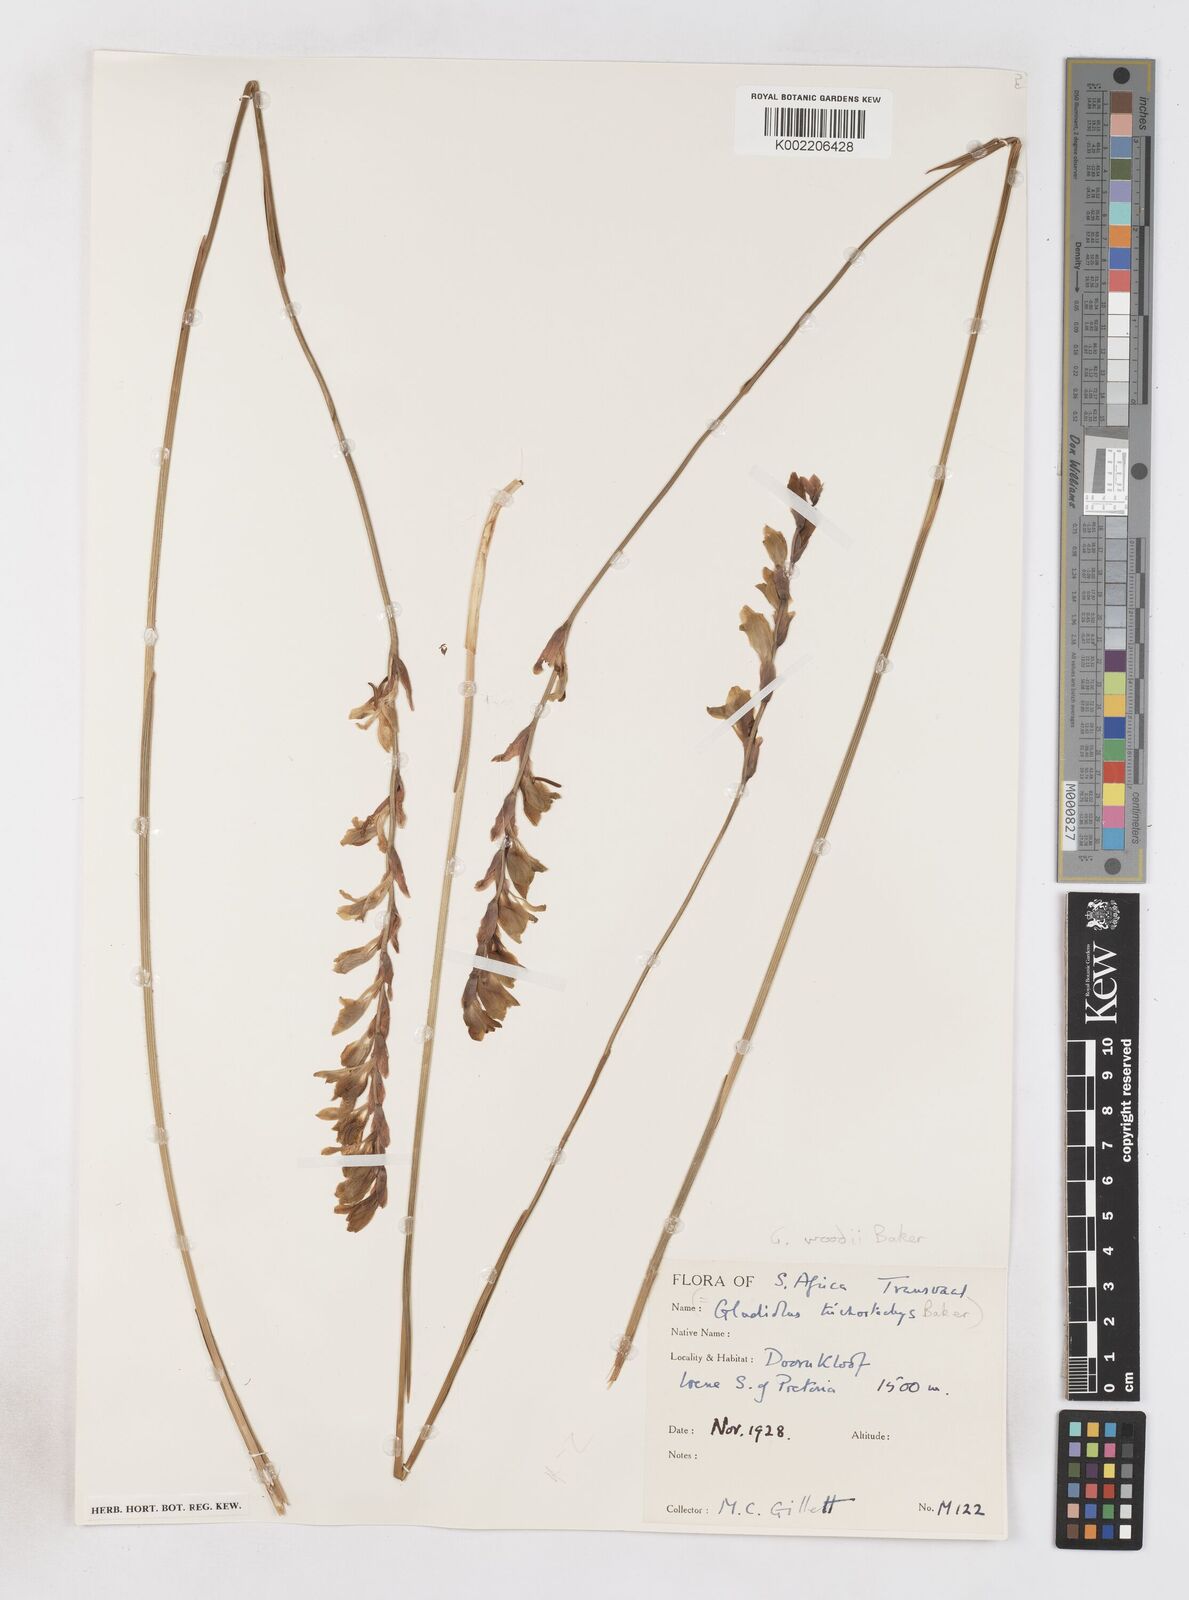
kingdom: Plantae
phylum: Tracheophyta
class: Liliopsida
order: Asparagales
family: Iridaceae
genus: Gladiolus
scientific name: Gladiolus woodii
